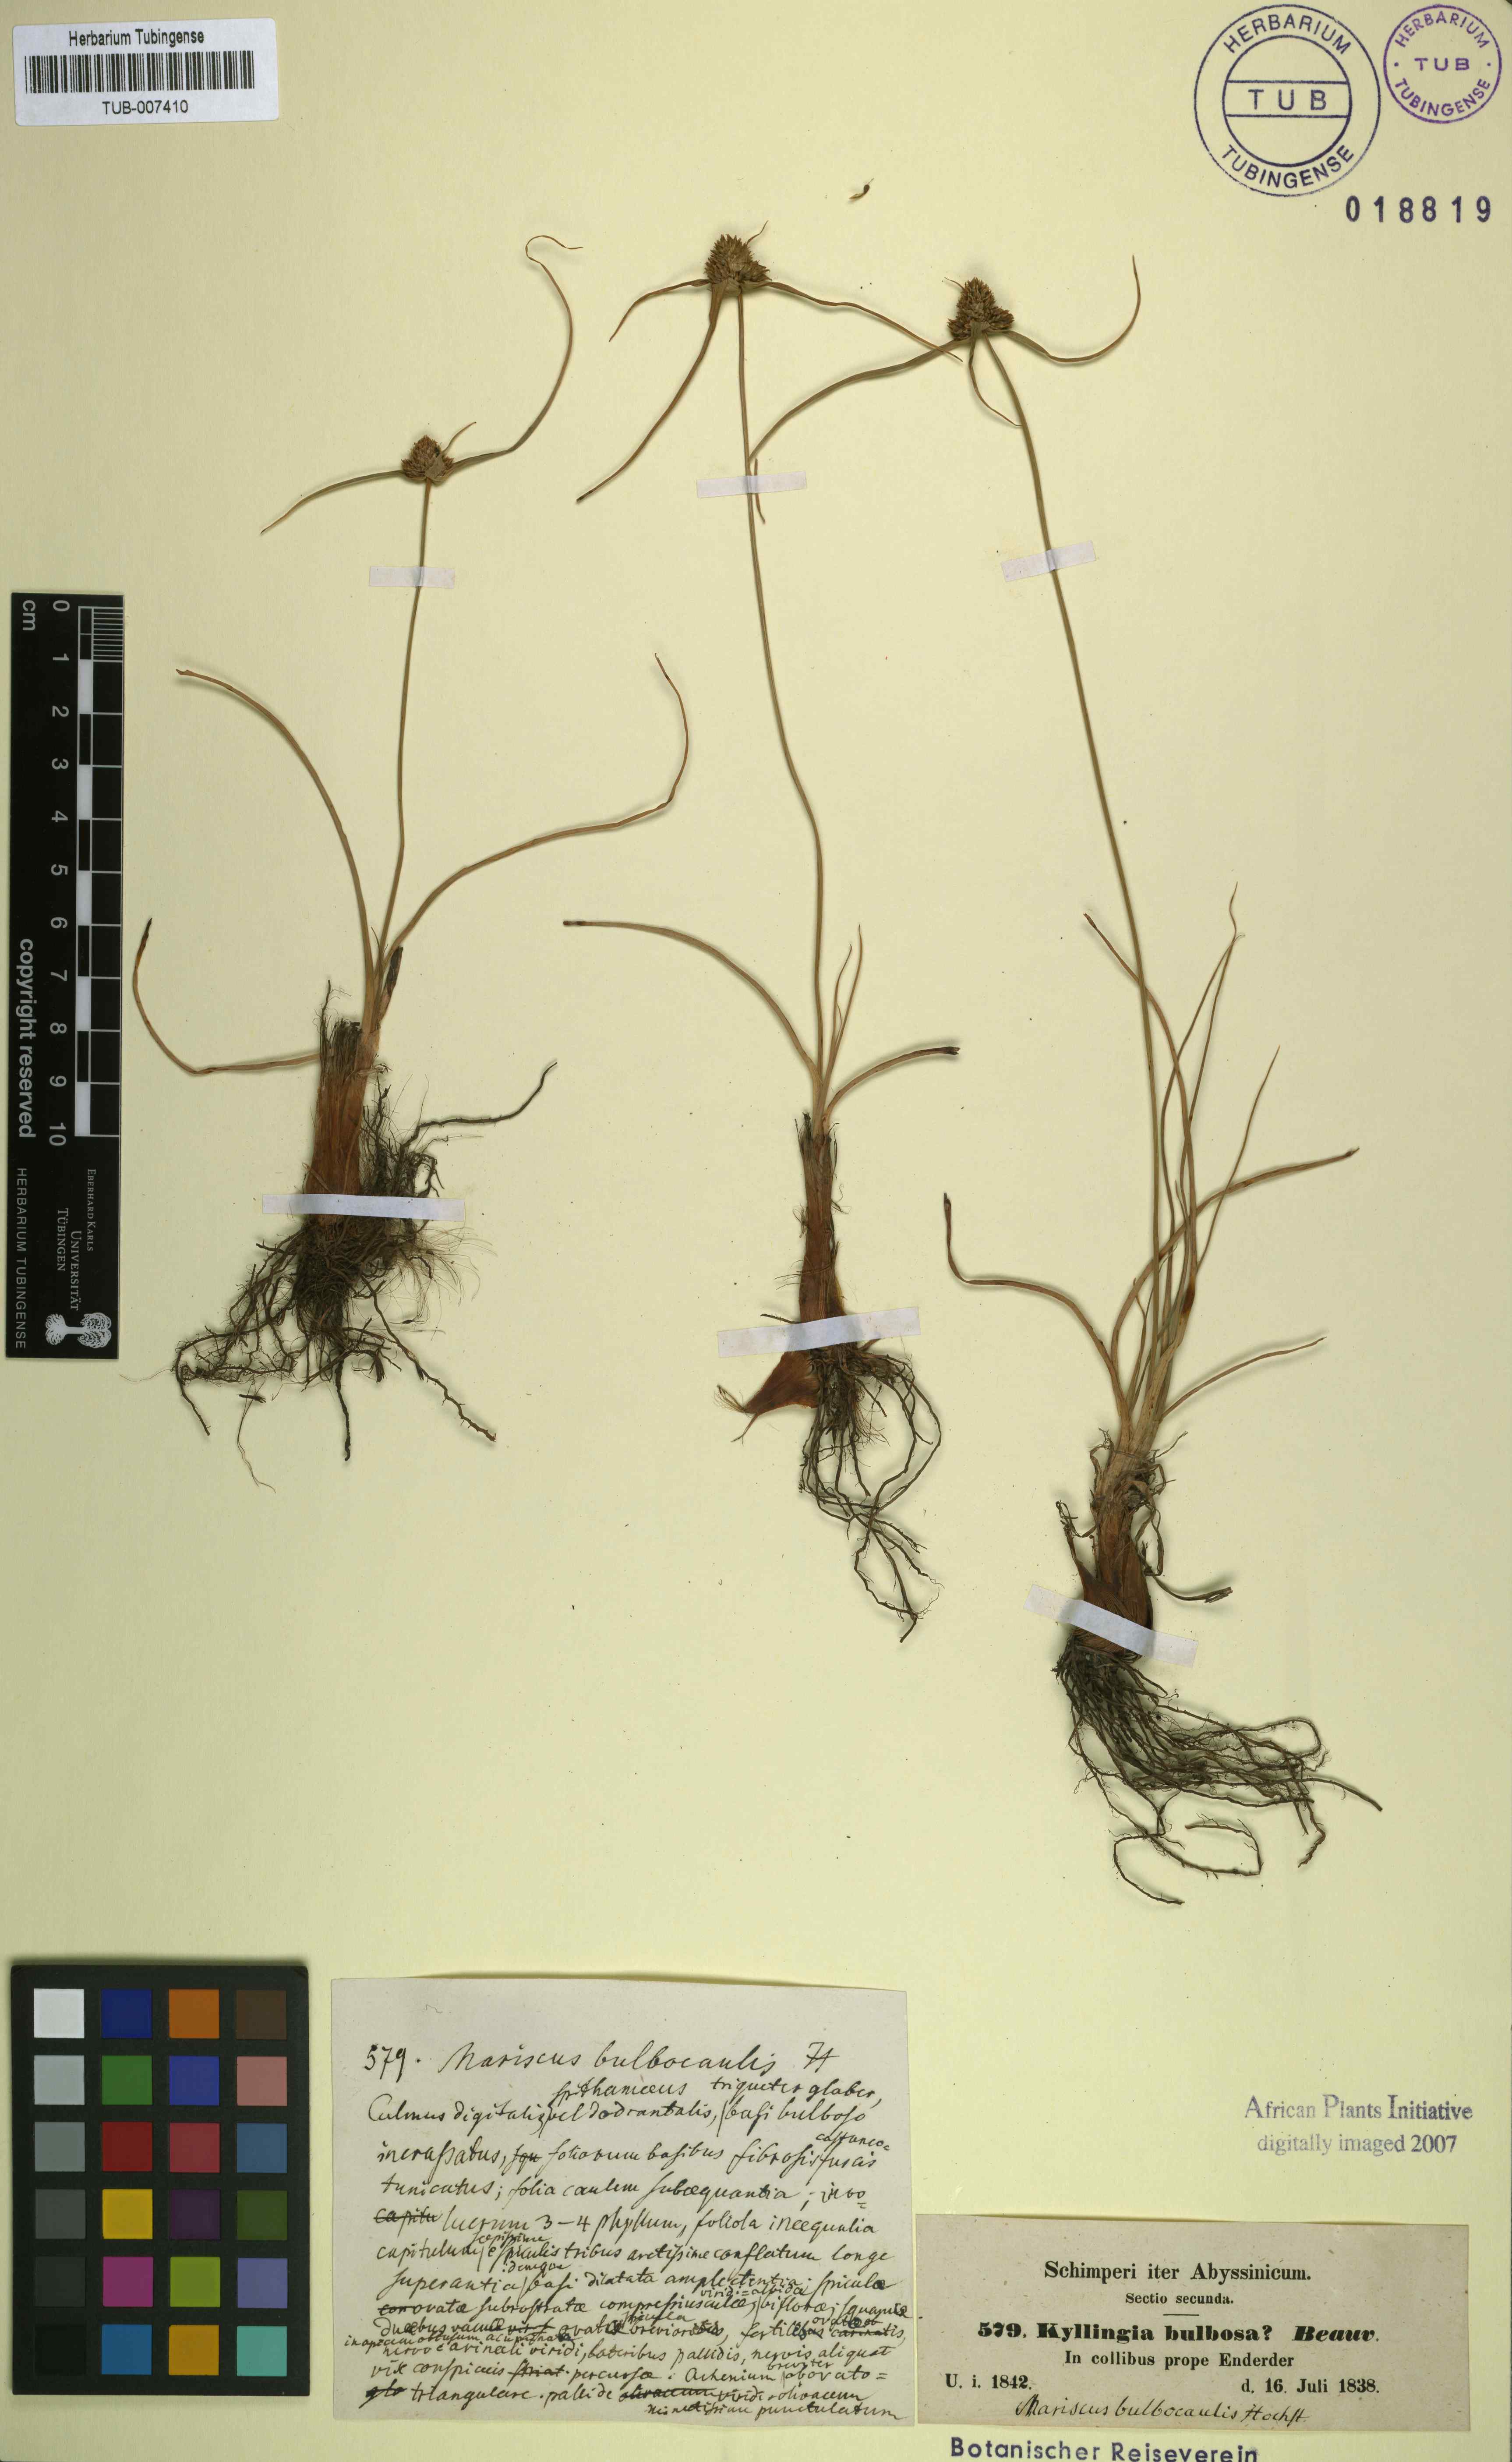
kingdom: Plantae
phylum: Tracheophyta
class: Liliopsida
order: Poales
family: Cyperaceae
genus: Cladium
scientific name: Cladium Mariscus bulbocaulis
